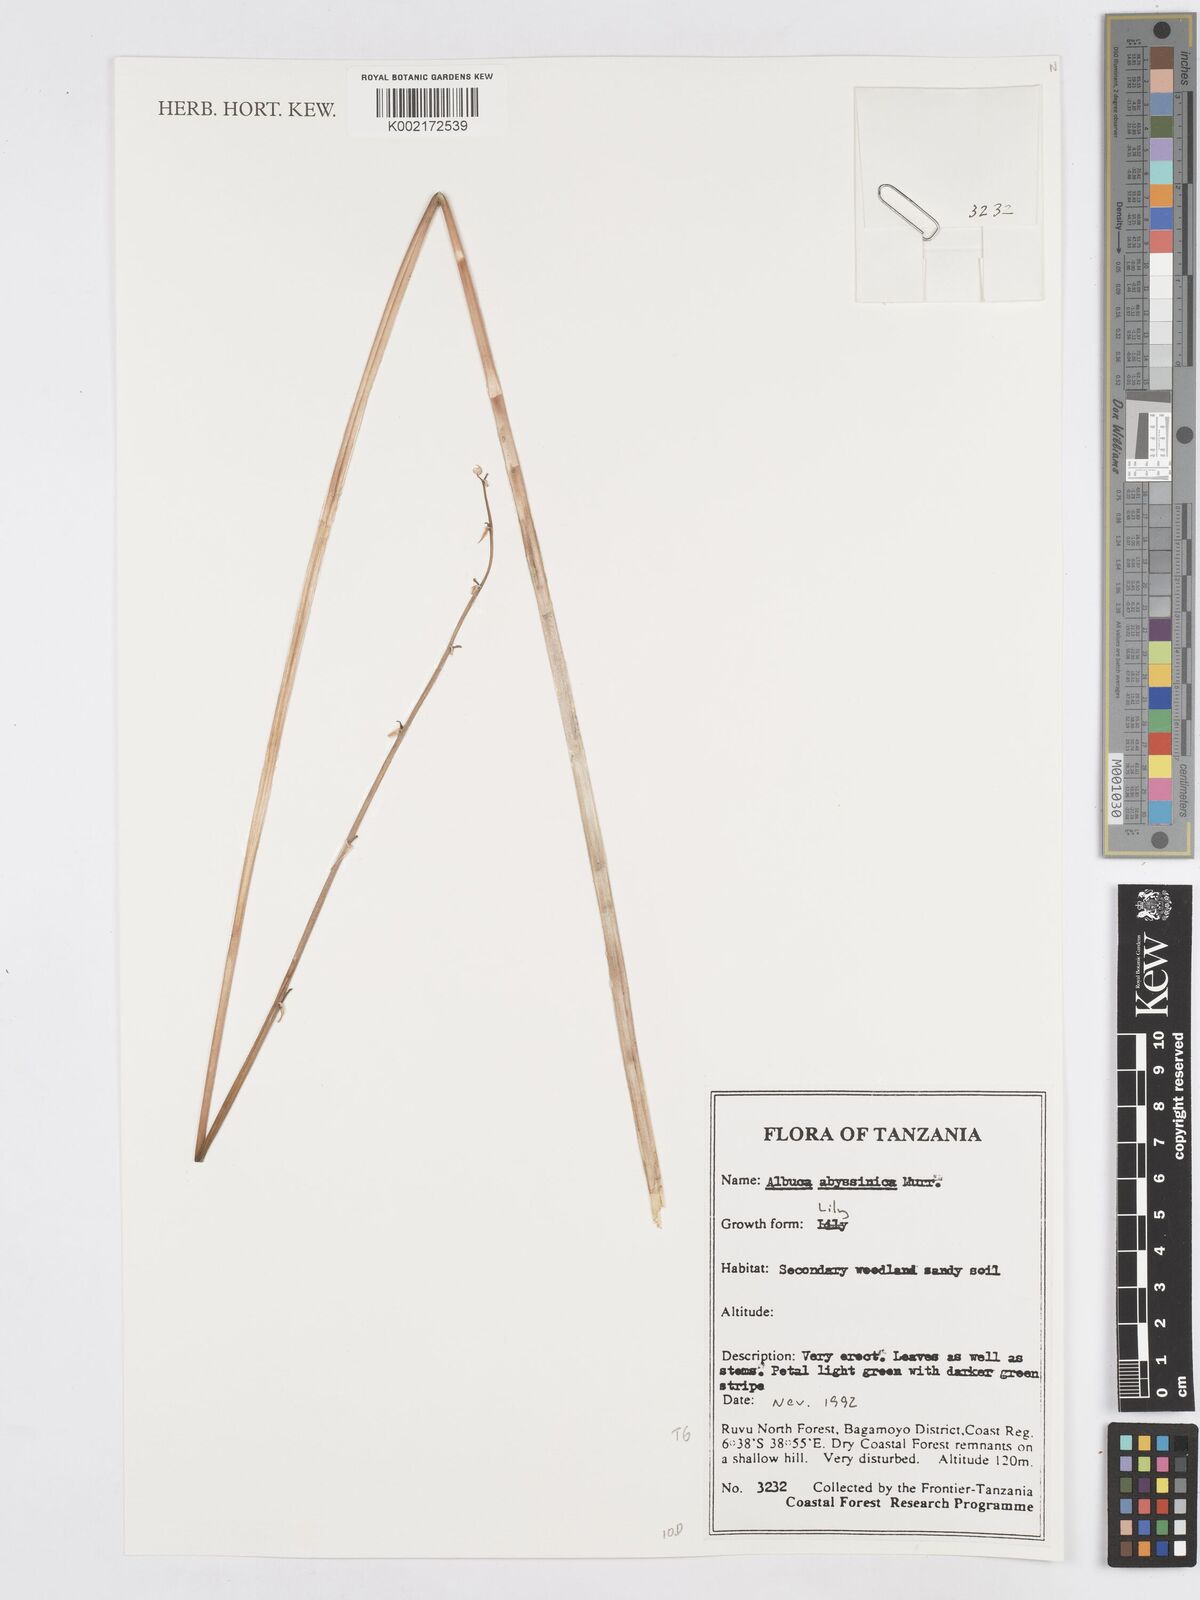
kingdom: Plantae
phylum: Tracheophyta
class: Liliopsida
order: Asparagales
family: Asparagaceae
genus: Albuca
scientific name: Albuca abyssinica
